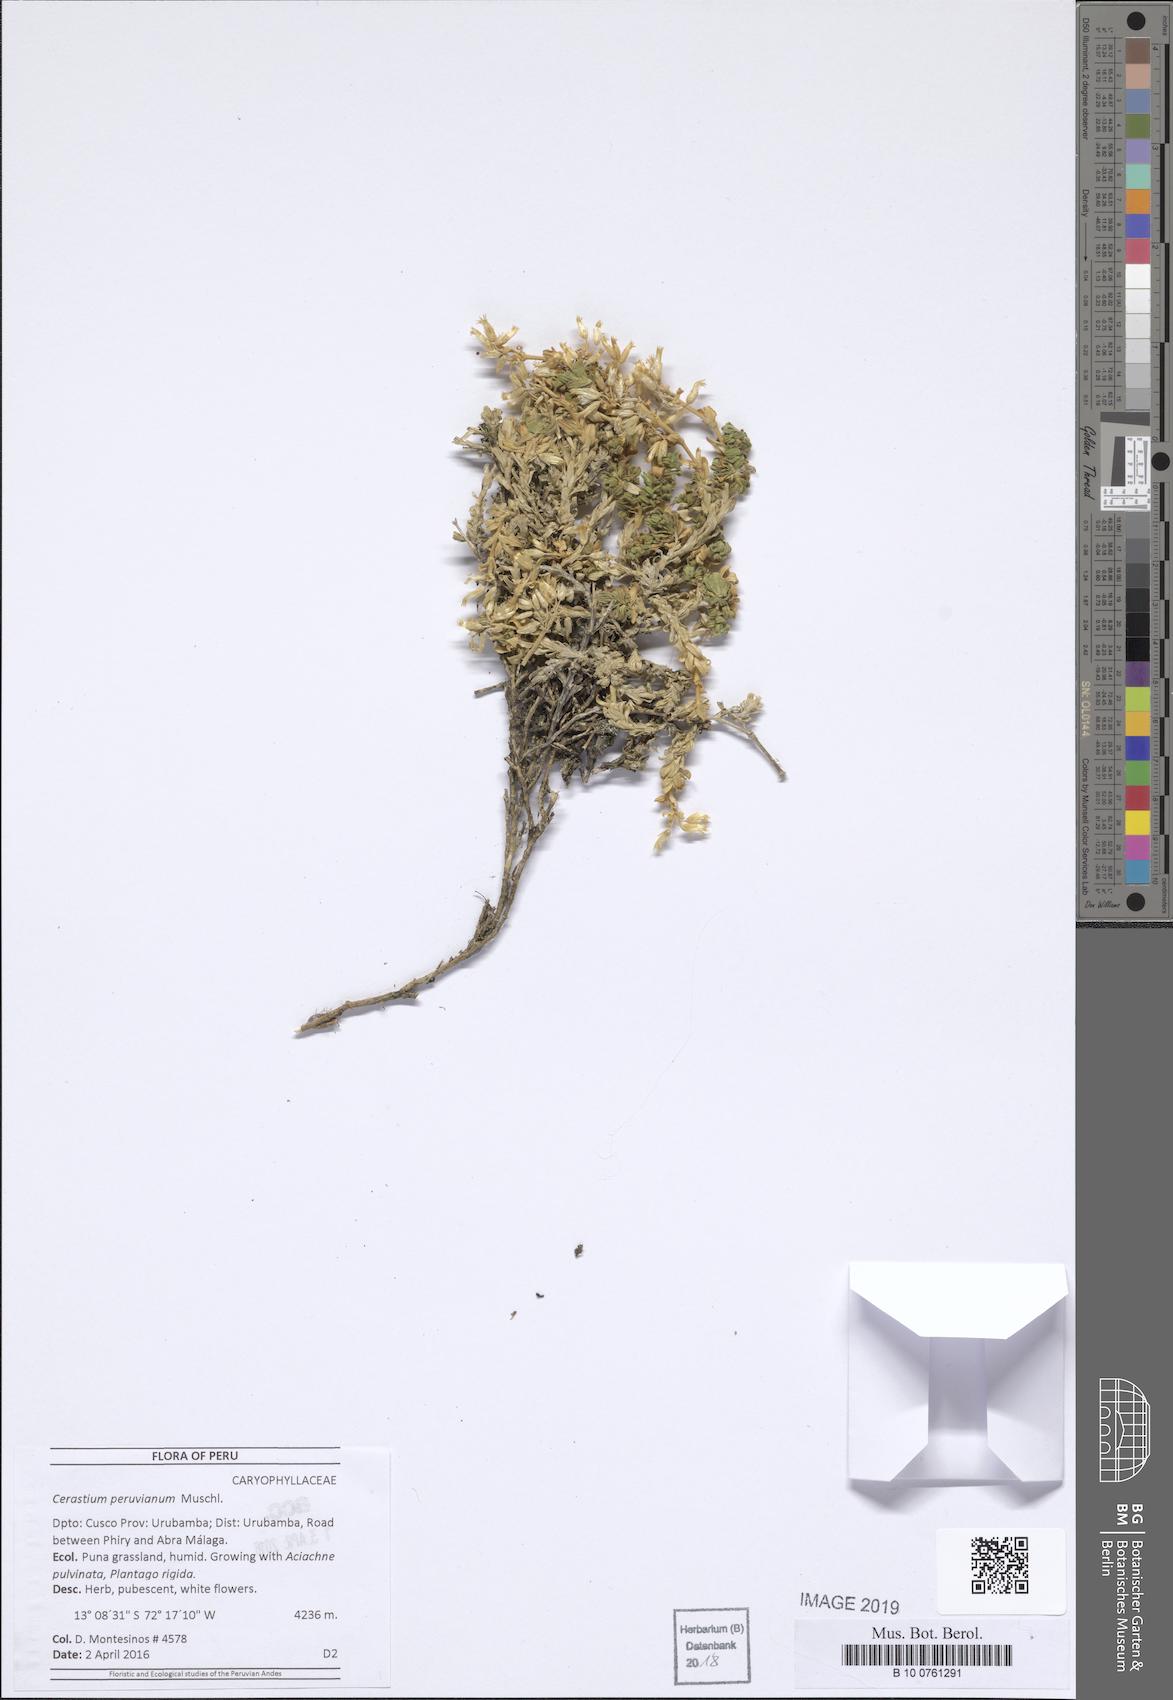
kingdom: Plantae
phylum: Tracheophyta
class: Magnoliopsida
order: Caryophyllales
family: Caryophyllaceae
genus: Cerastium
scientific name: Cerastium peruvianum
